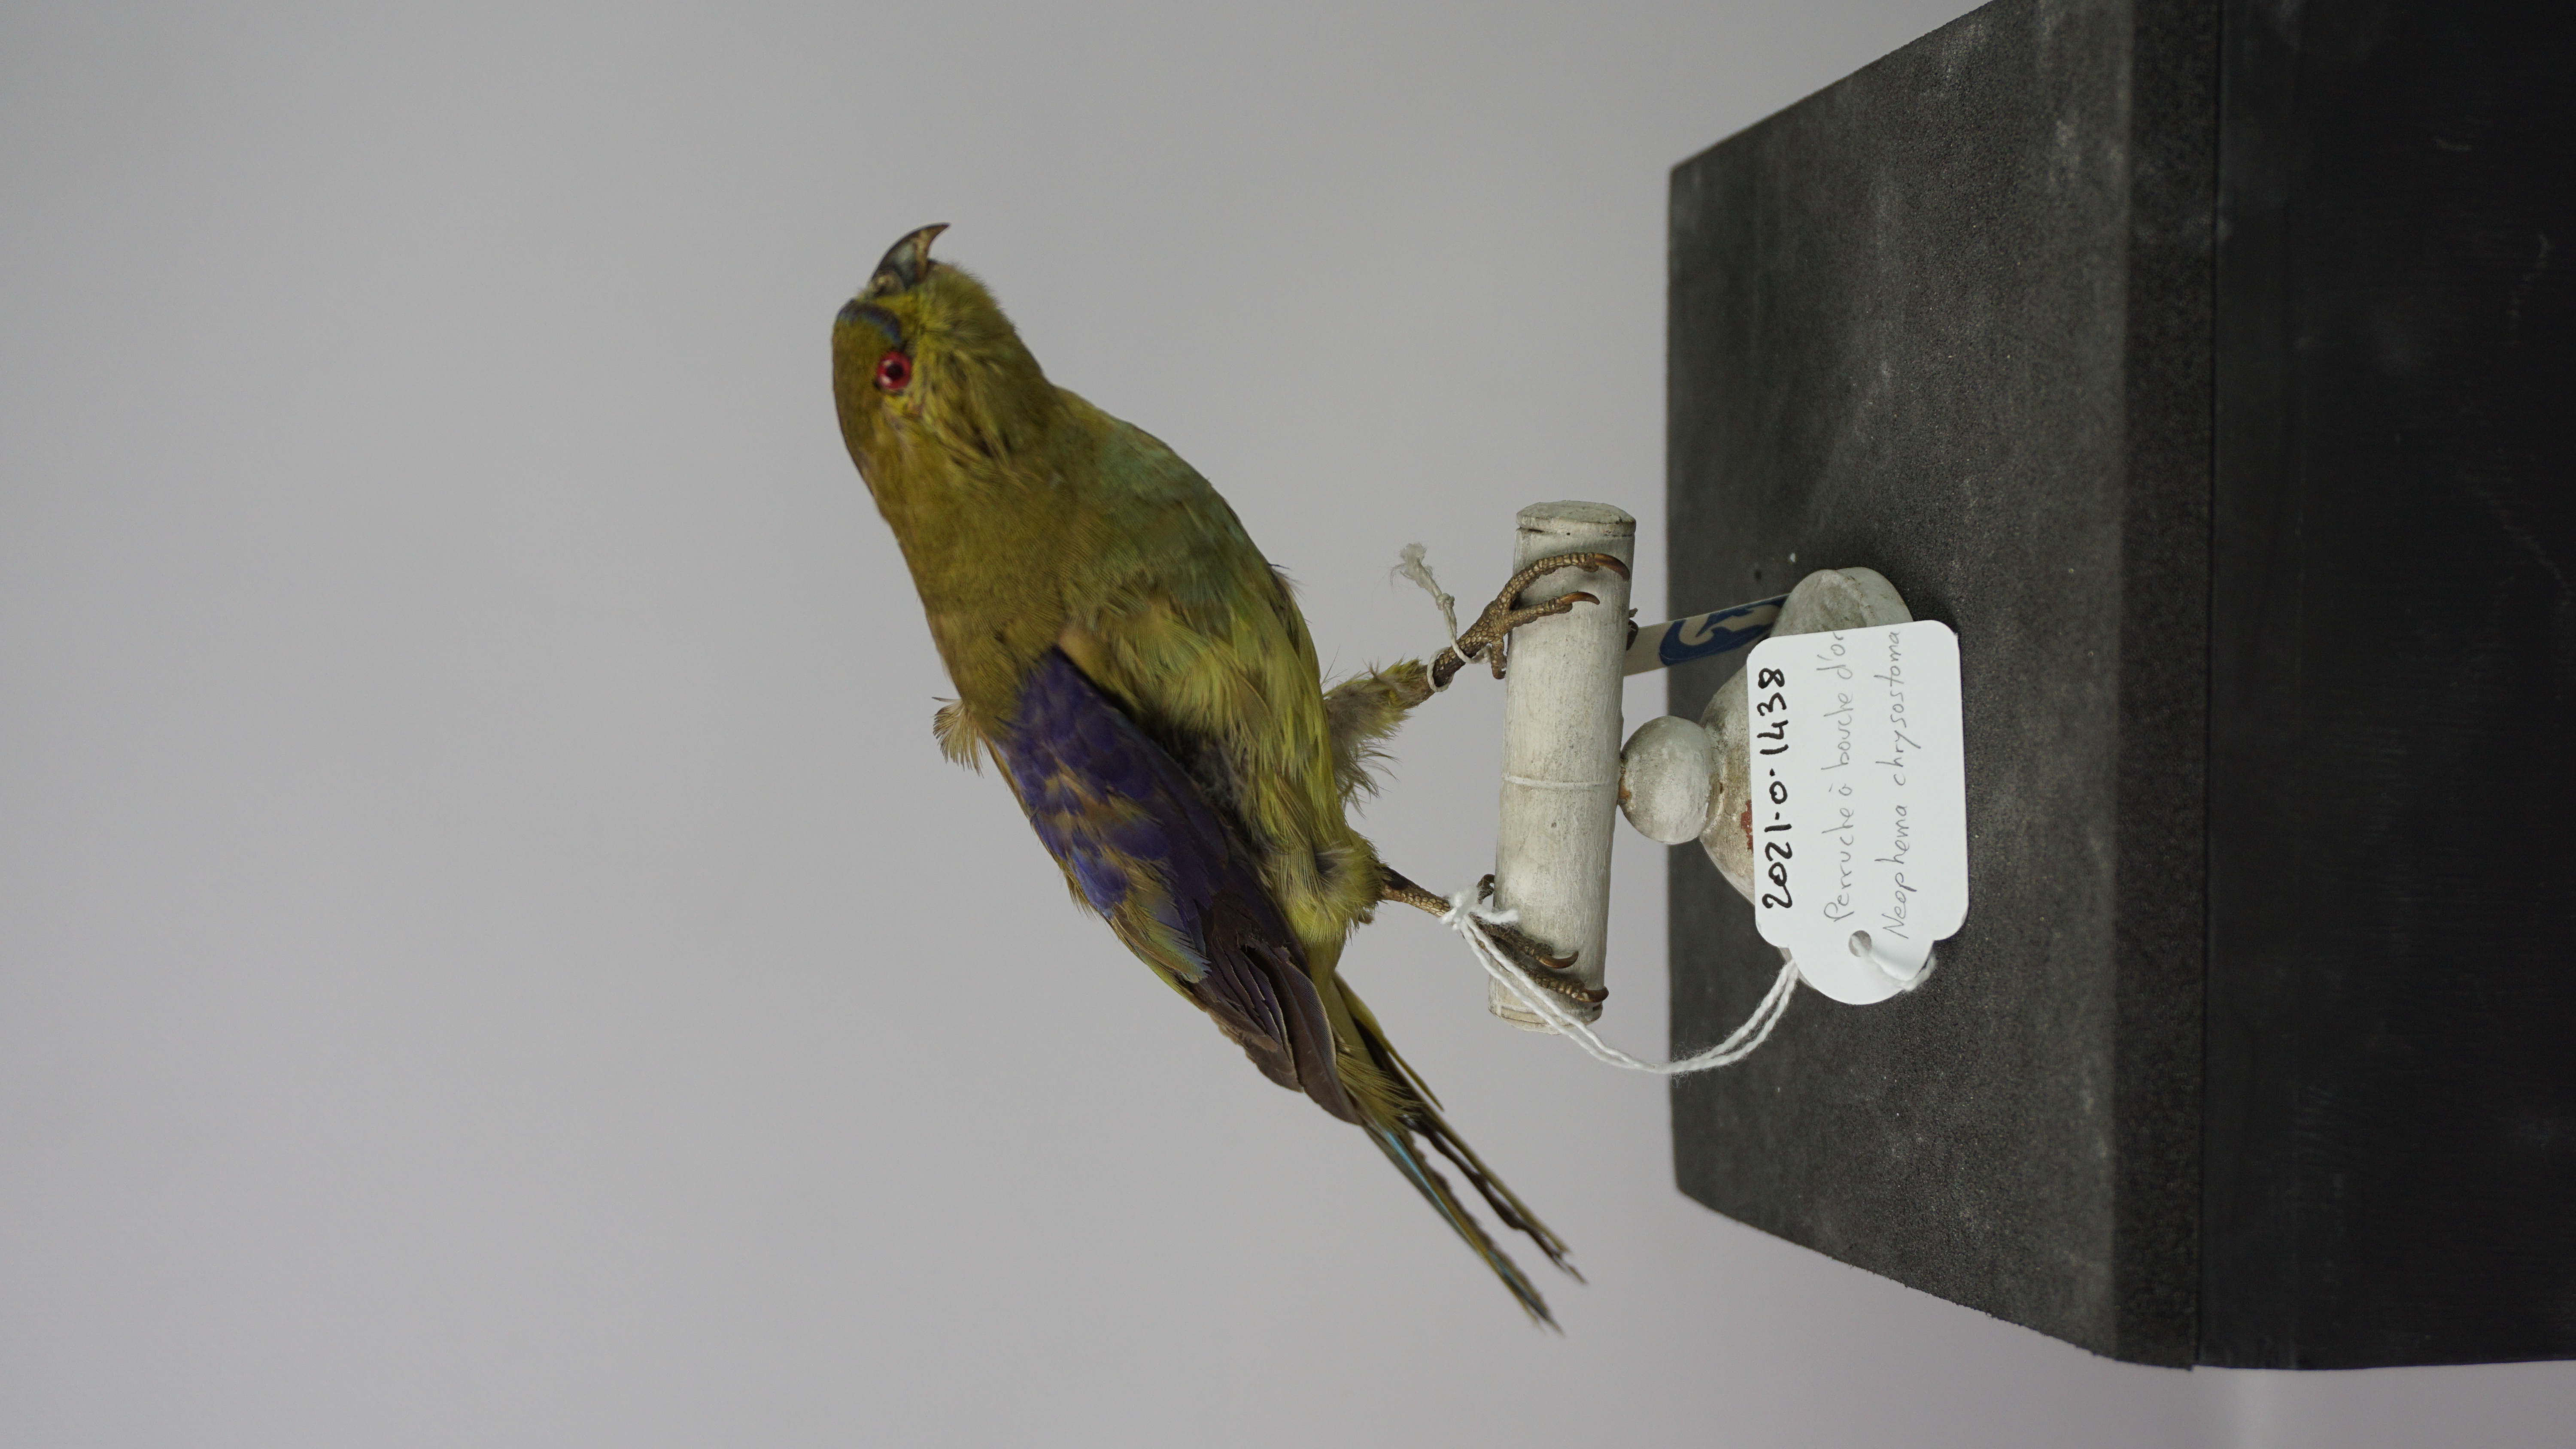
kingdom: Animalia
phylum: Chordata
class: Aves
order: Psittaciformes
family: Psittacidae
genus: Neophema
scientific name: Neophema chrysostoma
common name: Blue-winged parrot
